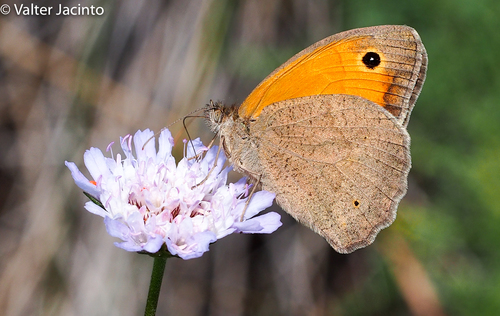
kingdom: Animalia
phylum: Arthropoda
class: Insecta
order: Lepidoptera
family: Nymphalidae
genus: Maniola
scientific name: Maniola jurtina
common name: Meadow brown
